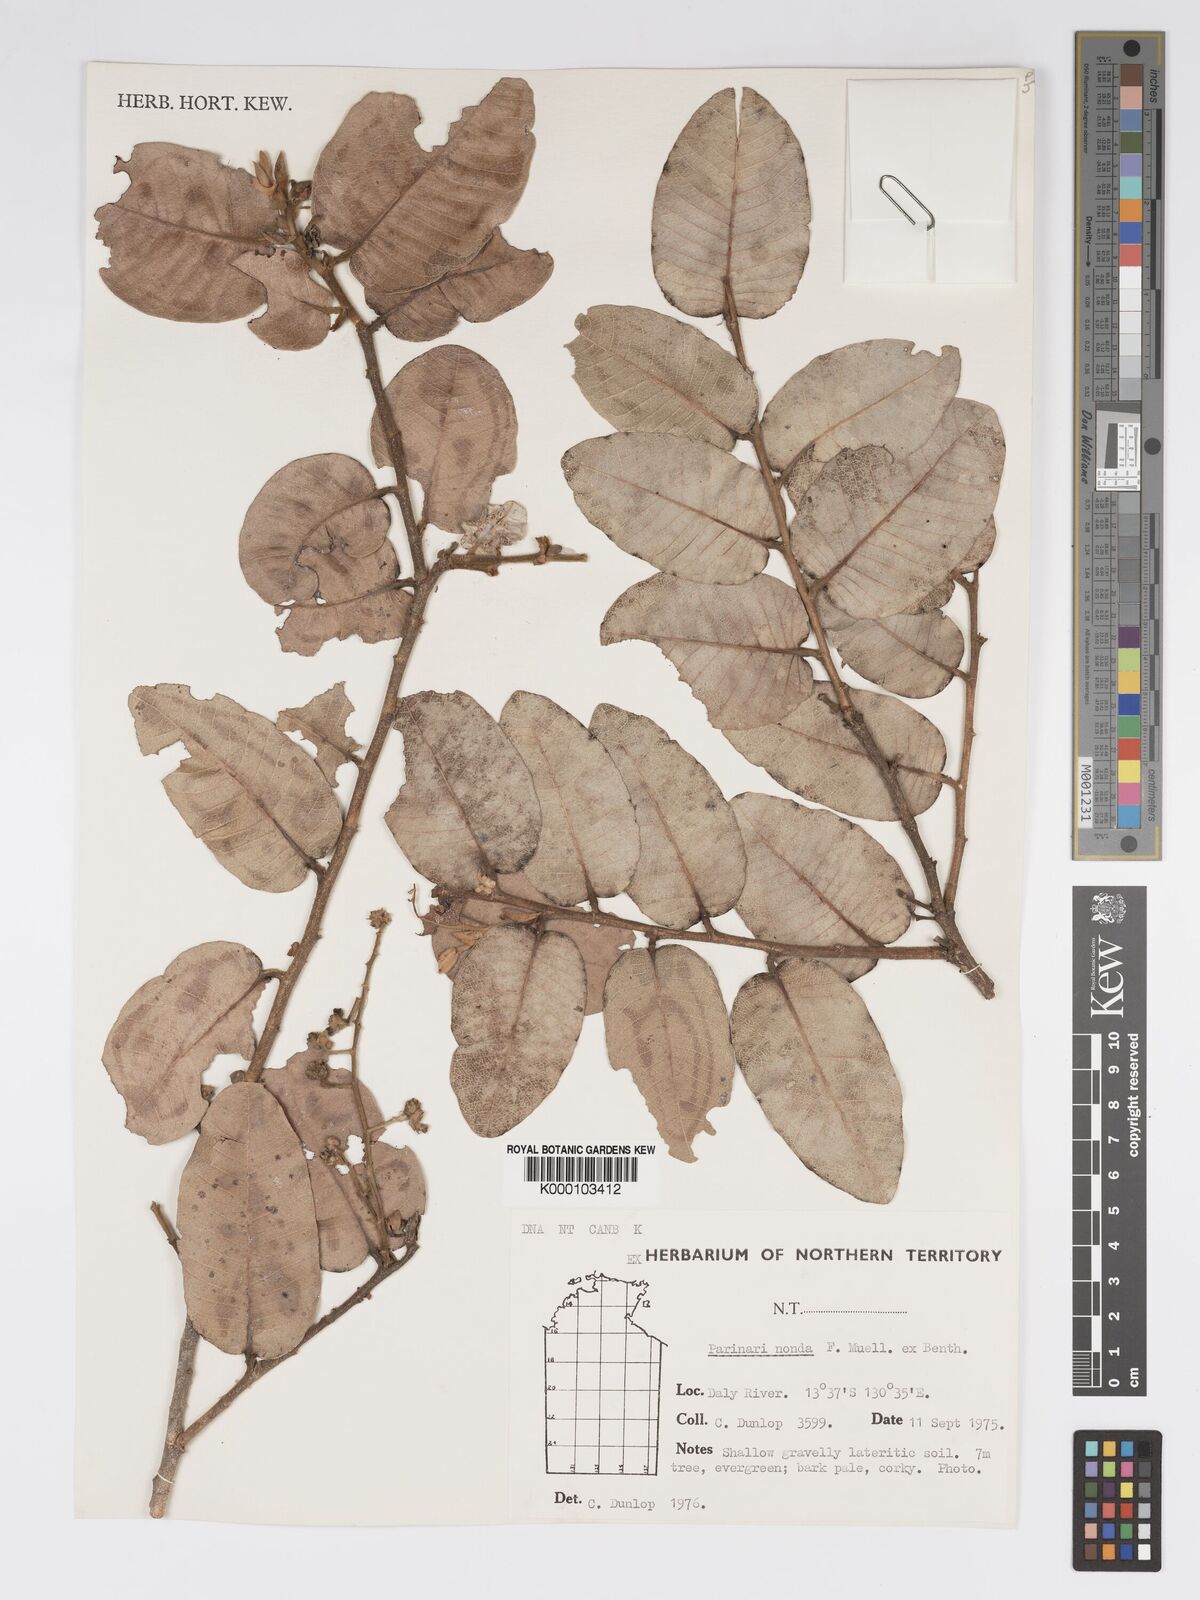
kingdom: Plantae
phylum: Tracheophyta
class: Magnoliopsida
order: Malpighiales
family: Chrysobalanaceae
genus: Parinari
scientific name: Parinari nonda
